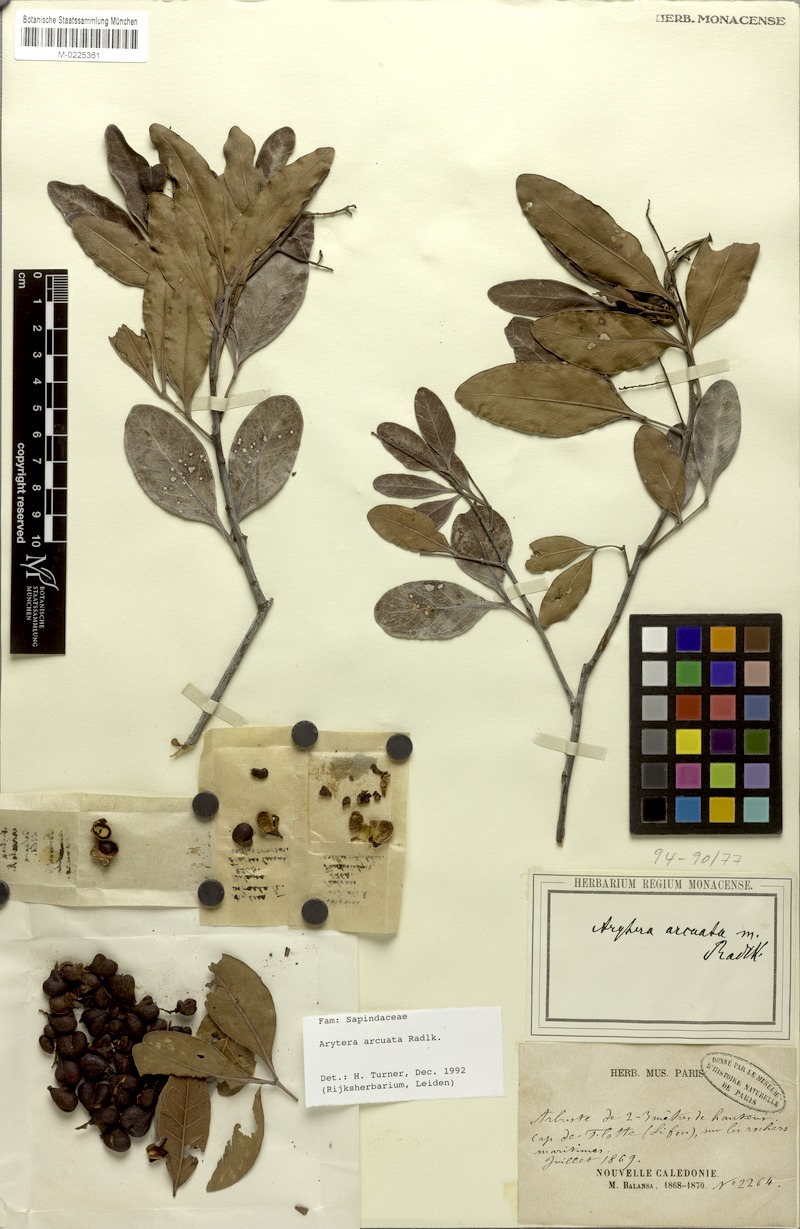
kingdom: Plantae
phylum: Tracheophyta
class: Magnoliopsida
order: Sapindales
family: Sapindaceae
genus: Lepidocupania
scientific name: Lepidocupania arcuata
